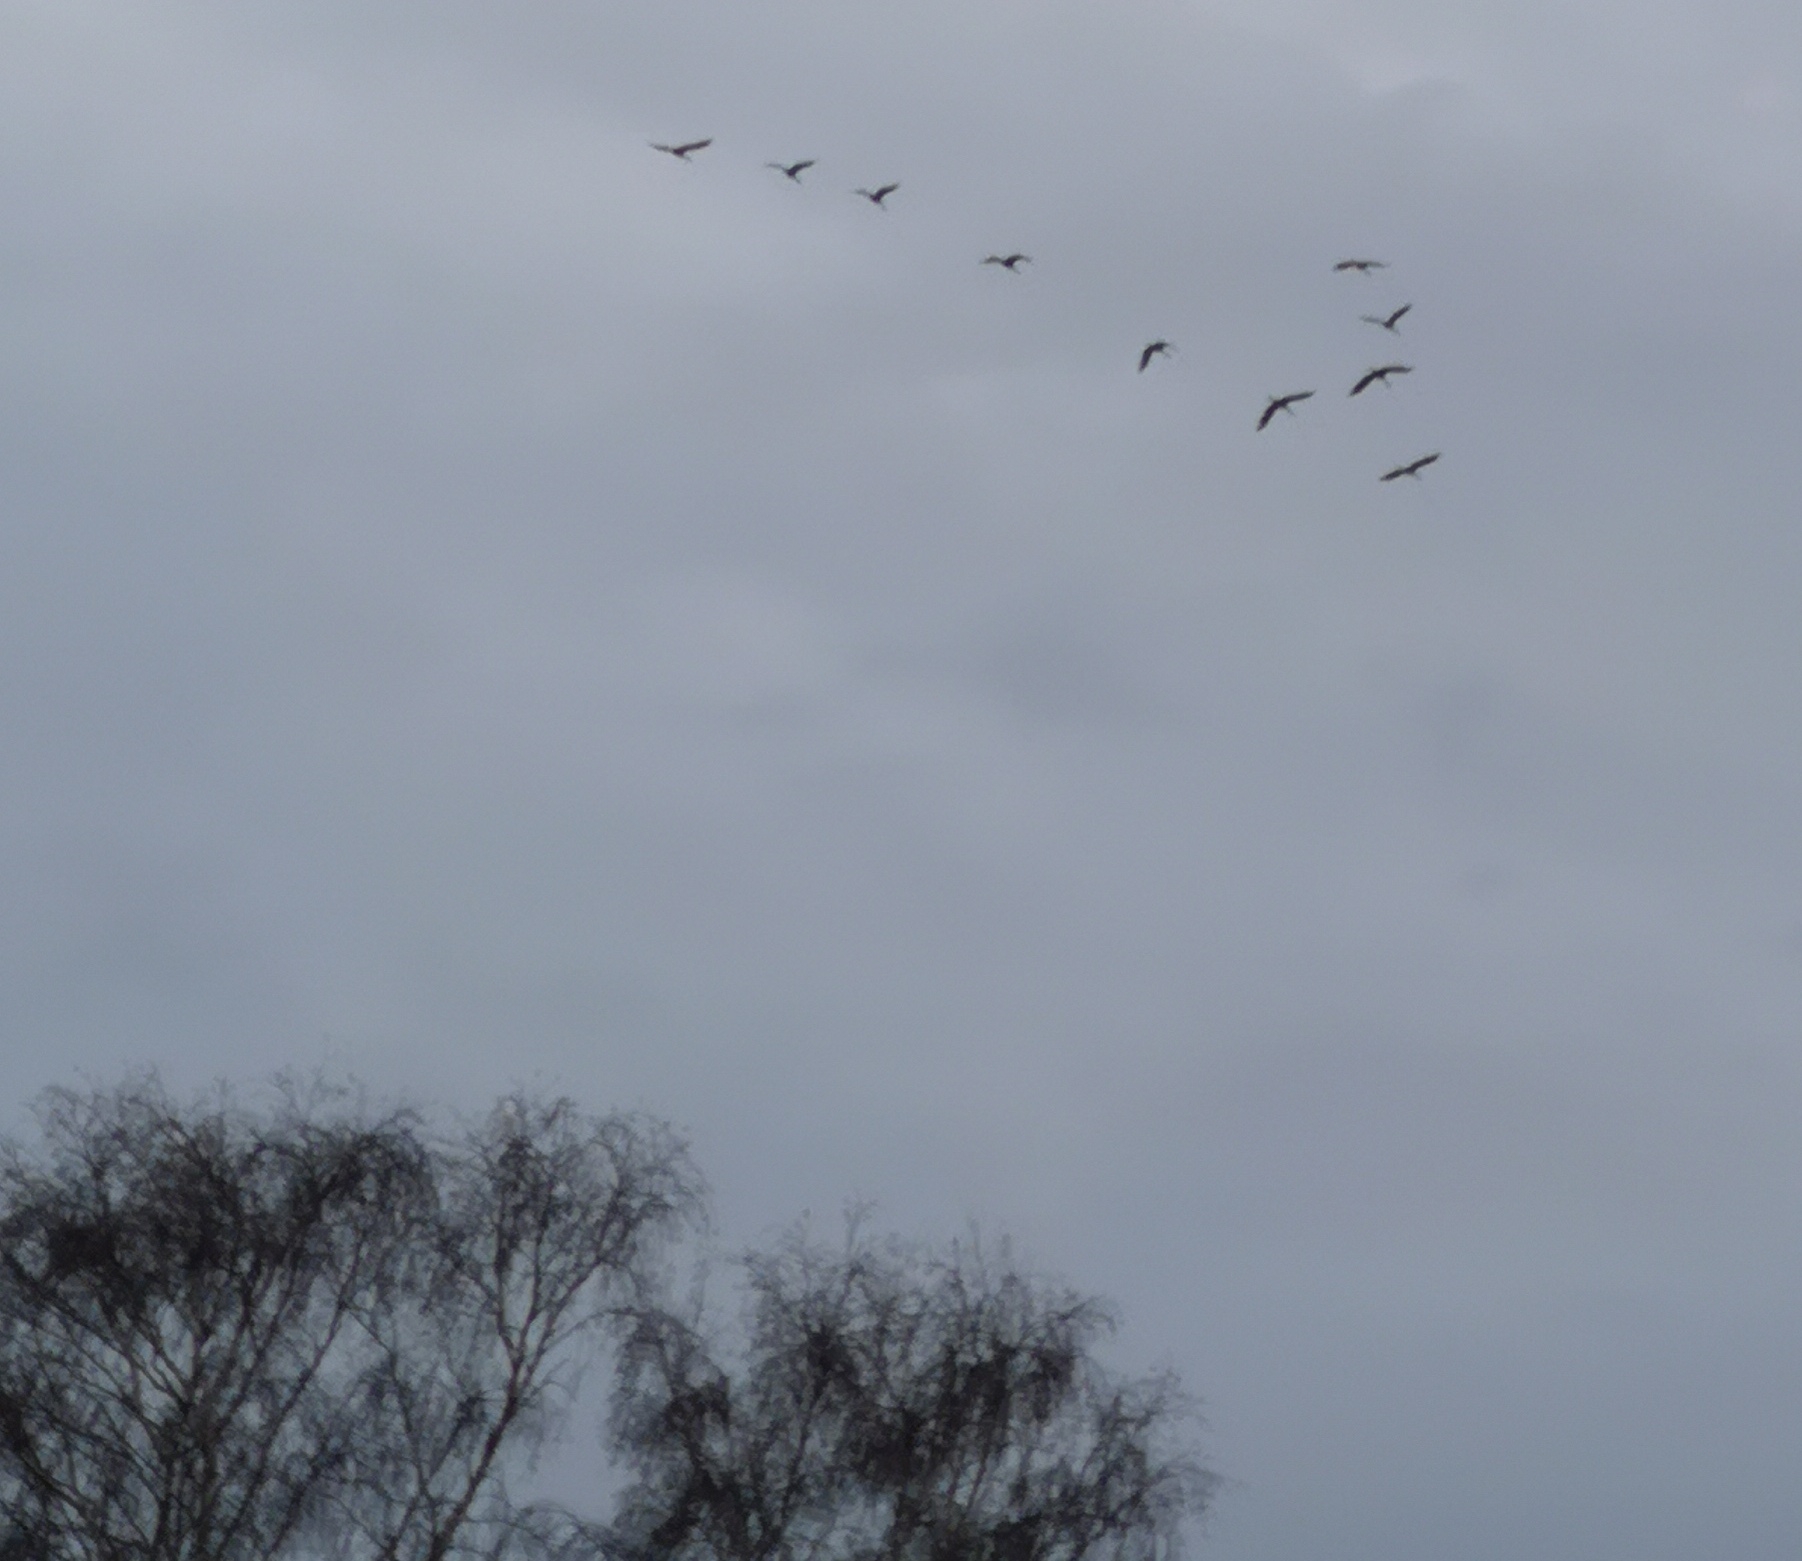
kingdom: Animalia
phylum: Chordata
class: Aves
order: Gruiformes
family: Gruidae
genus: Grus
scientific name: Grus grus
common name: Trane
